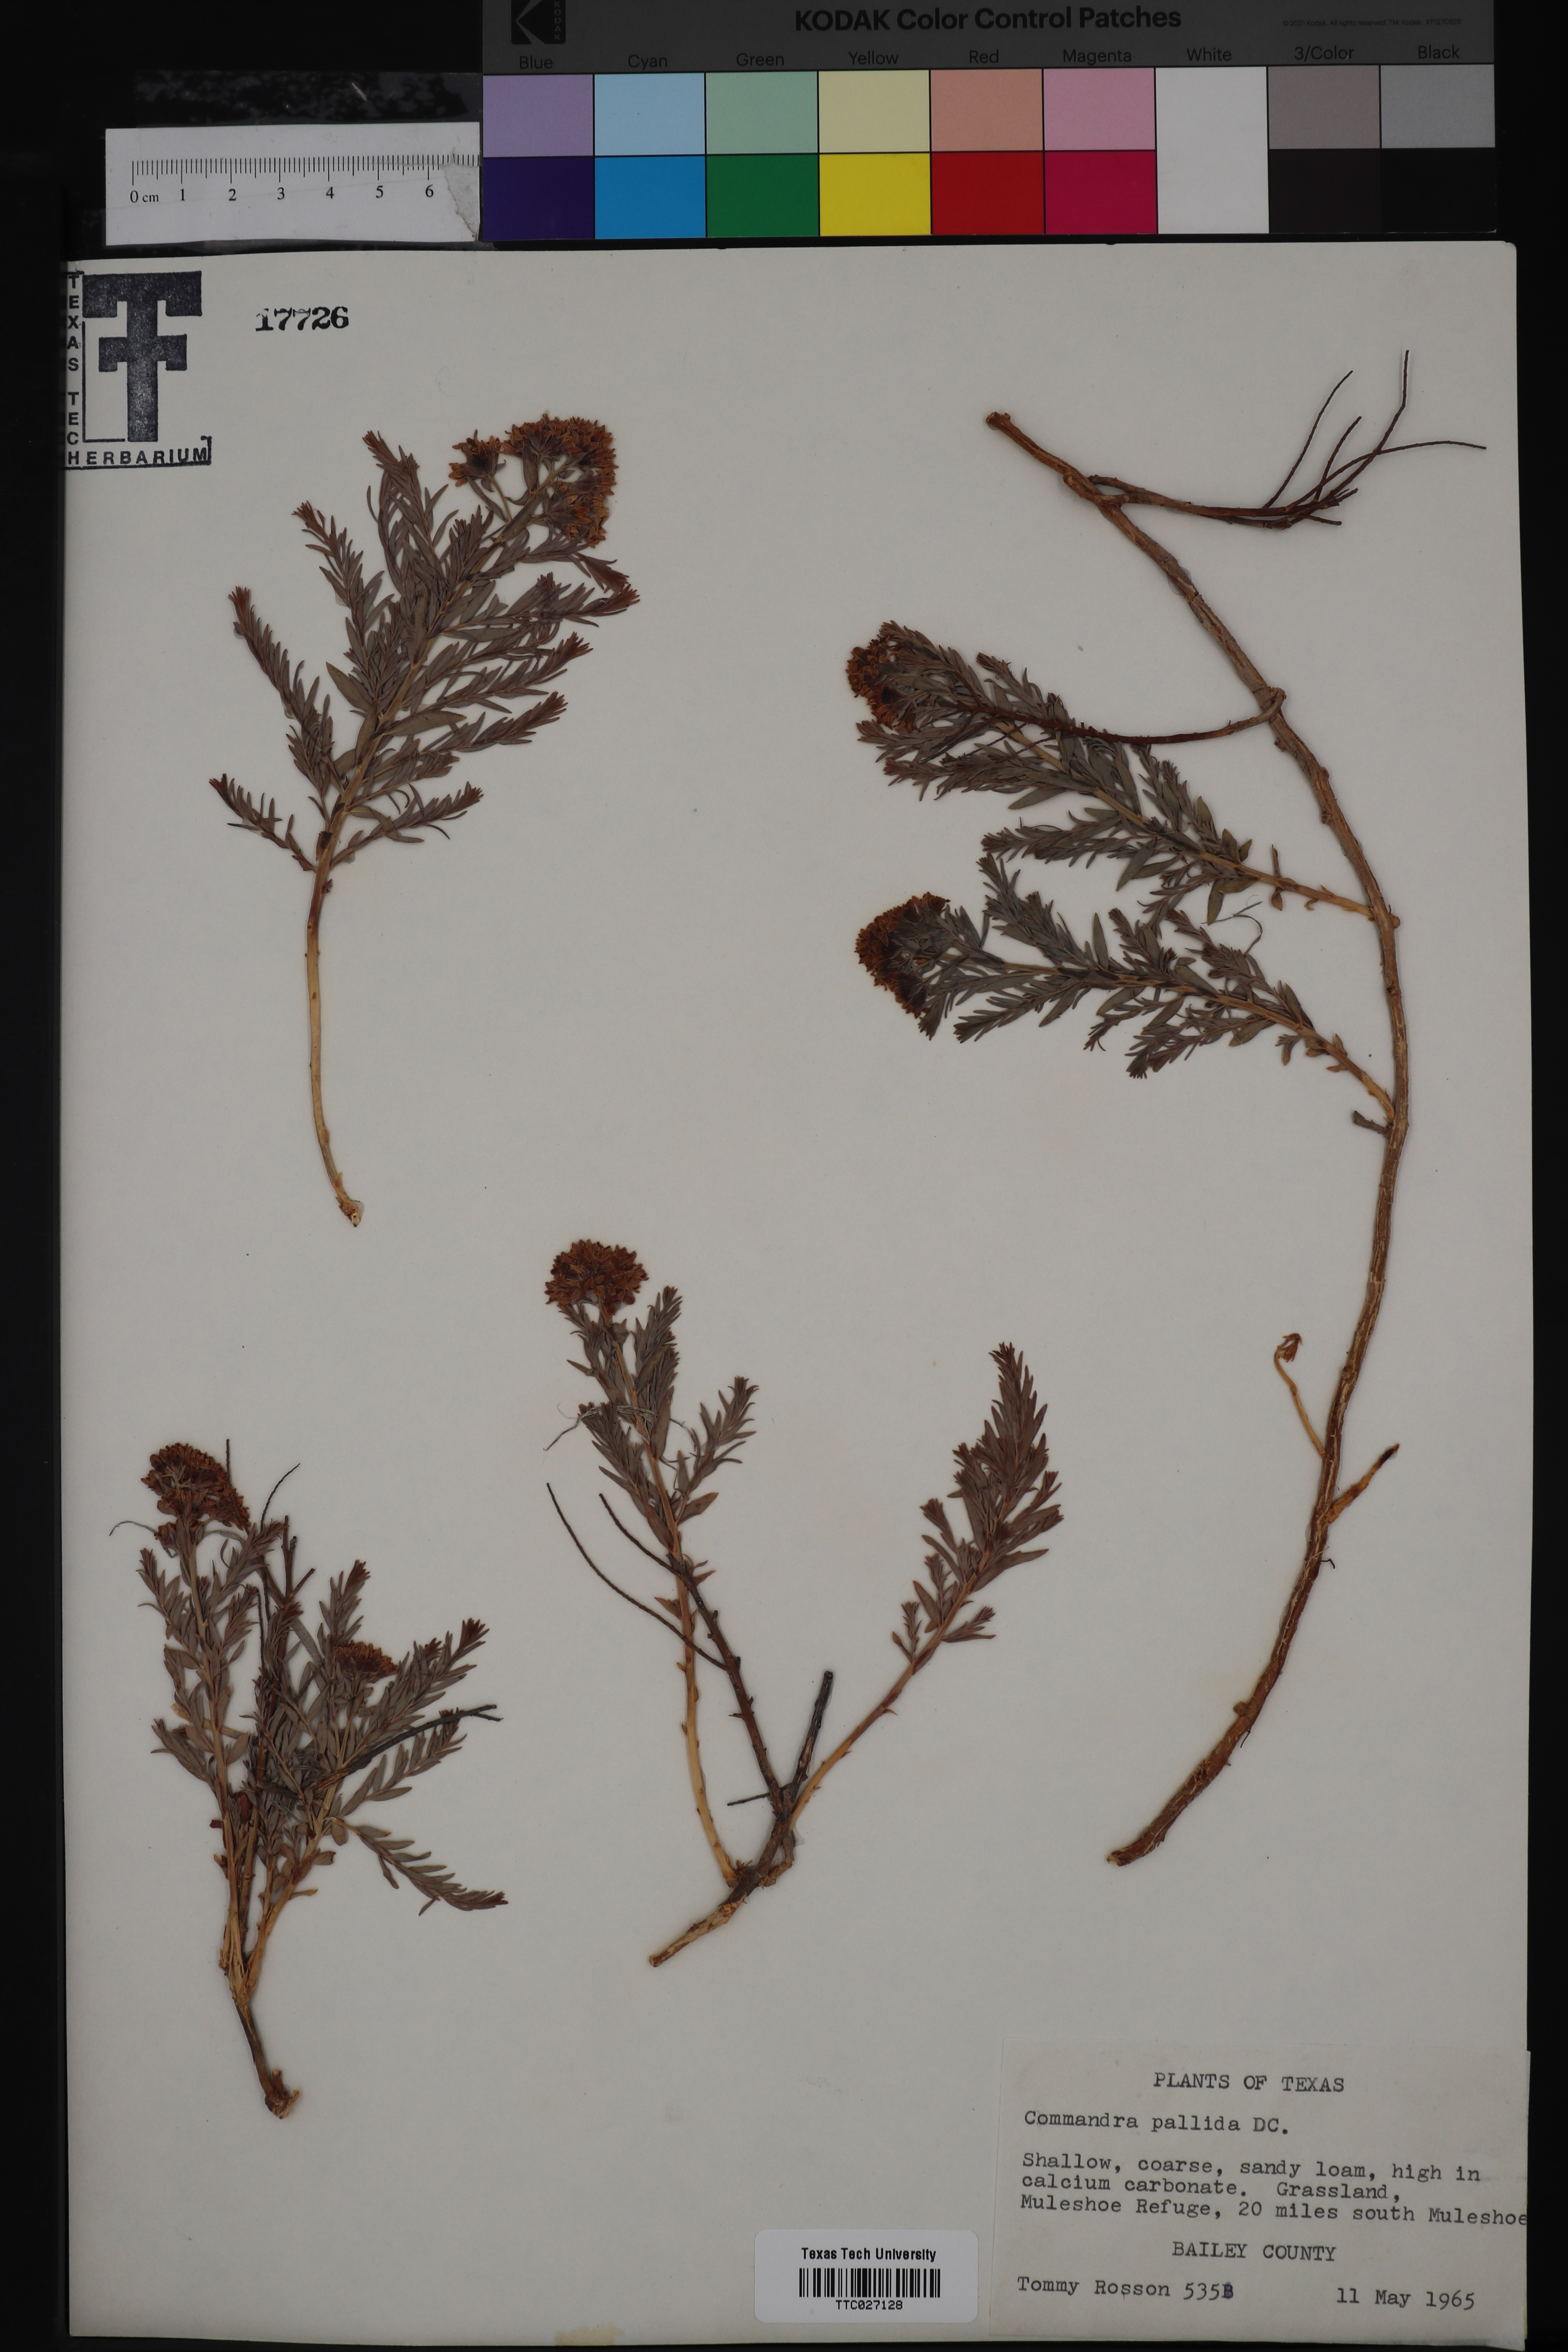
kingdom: Plantae
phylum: Tracheophyta
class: Magnoliopsida
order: Santalales
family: Comandraceae
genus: Comandra
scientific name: Comandra umbellata
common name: Bastard toadflax
